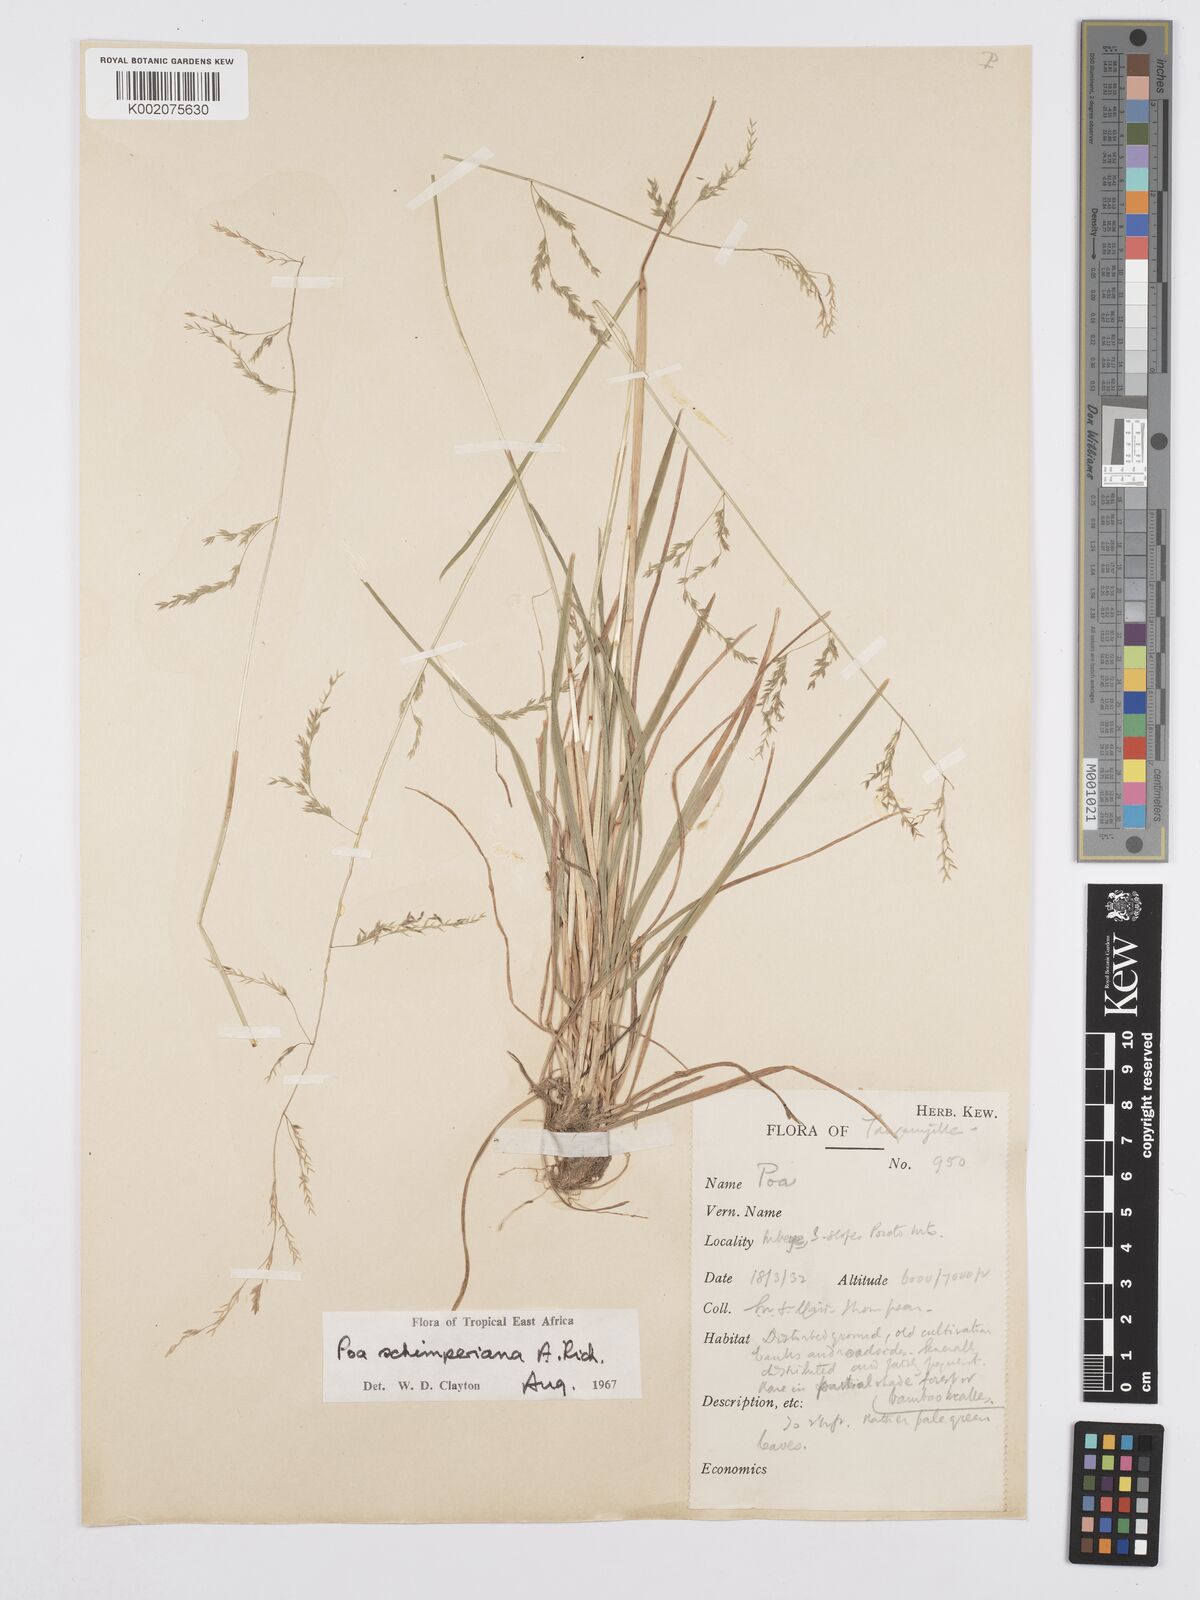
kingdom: Plantae
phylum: Tracheophyta
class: Liliopsida
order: Poales
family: Poaceae
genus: Poa
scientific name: Poa schimperiana
